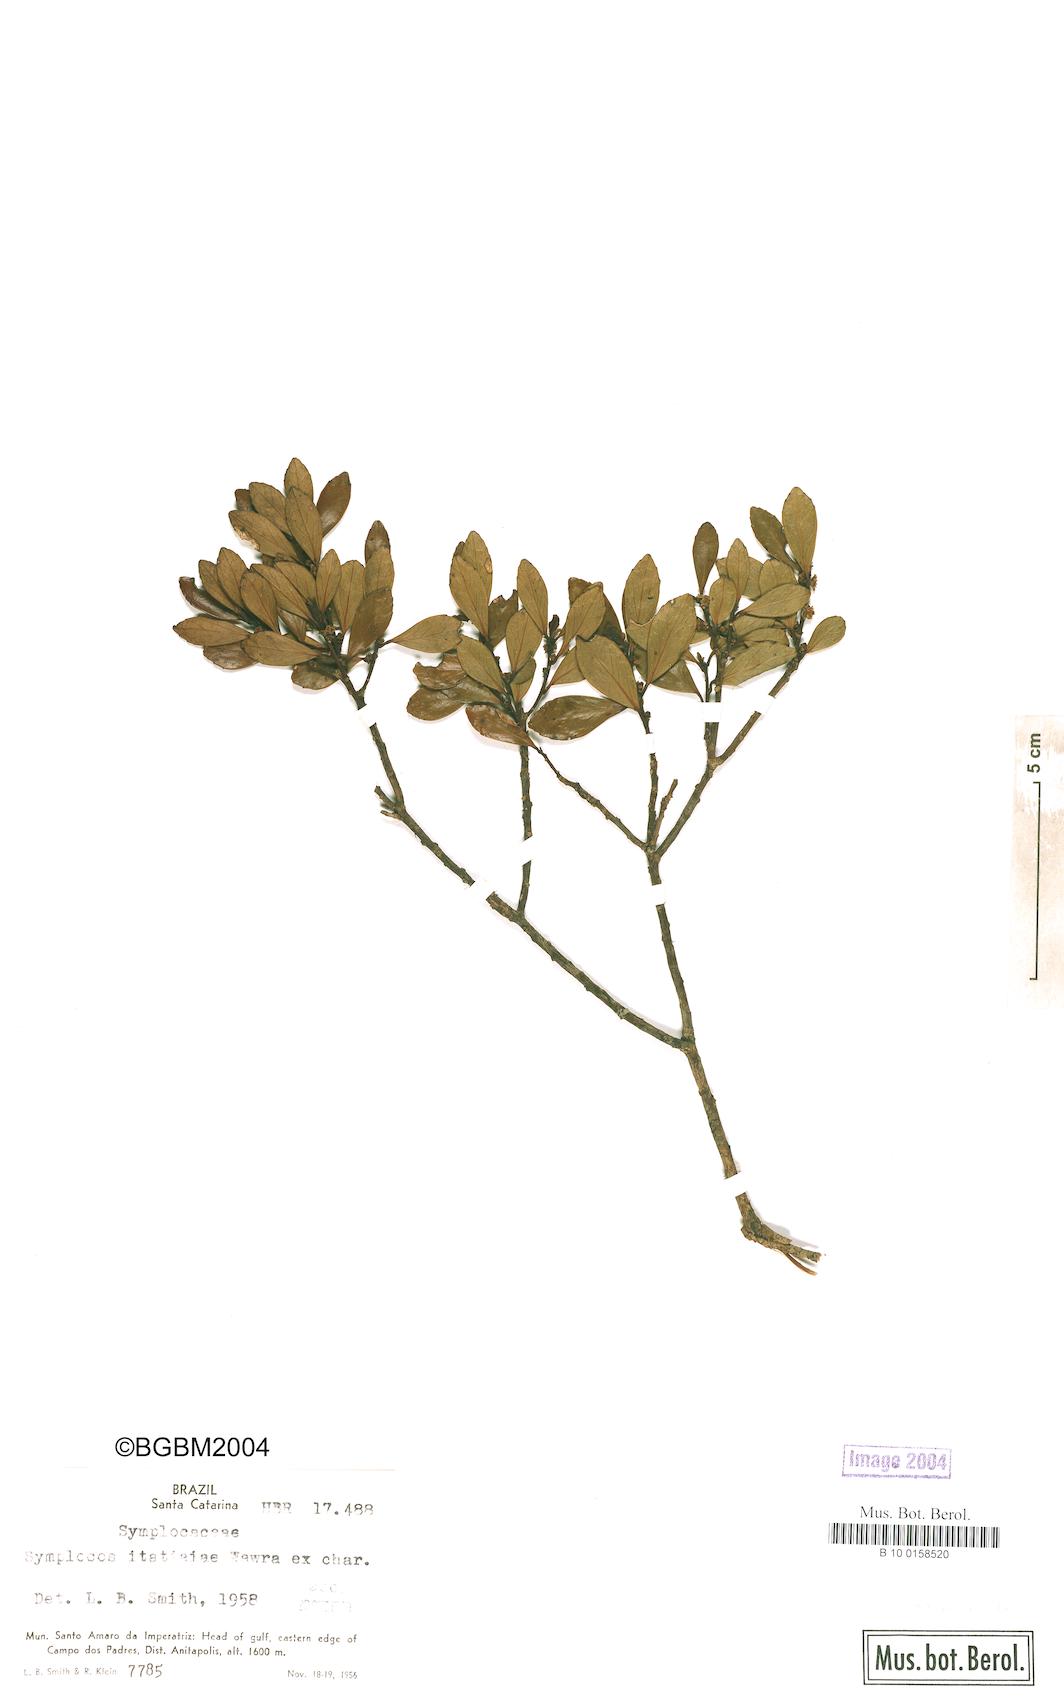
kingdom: Plantae
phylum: Tracheophyta
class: Magnoliopsida
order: Ericales
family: Symplocaceae
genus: Symplocos
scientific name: Symplocos pentandra
